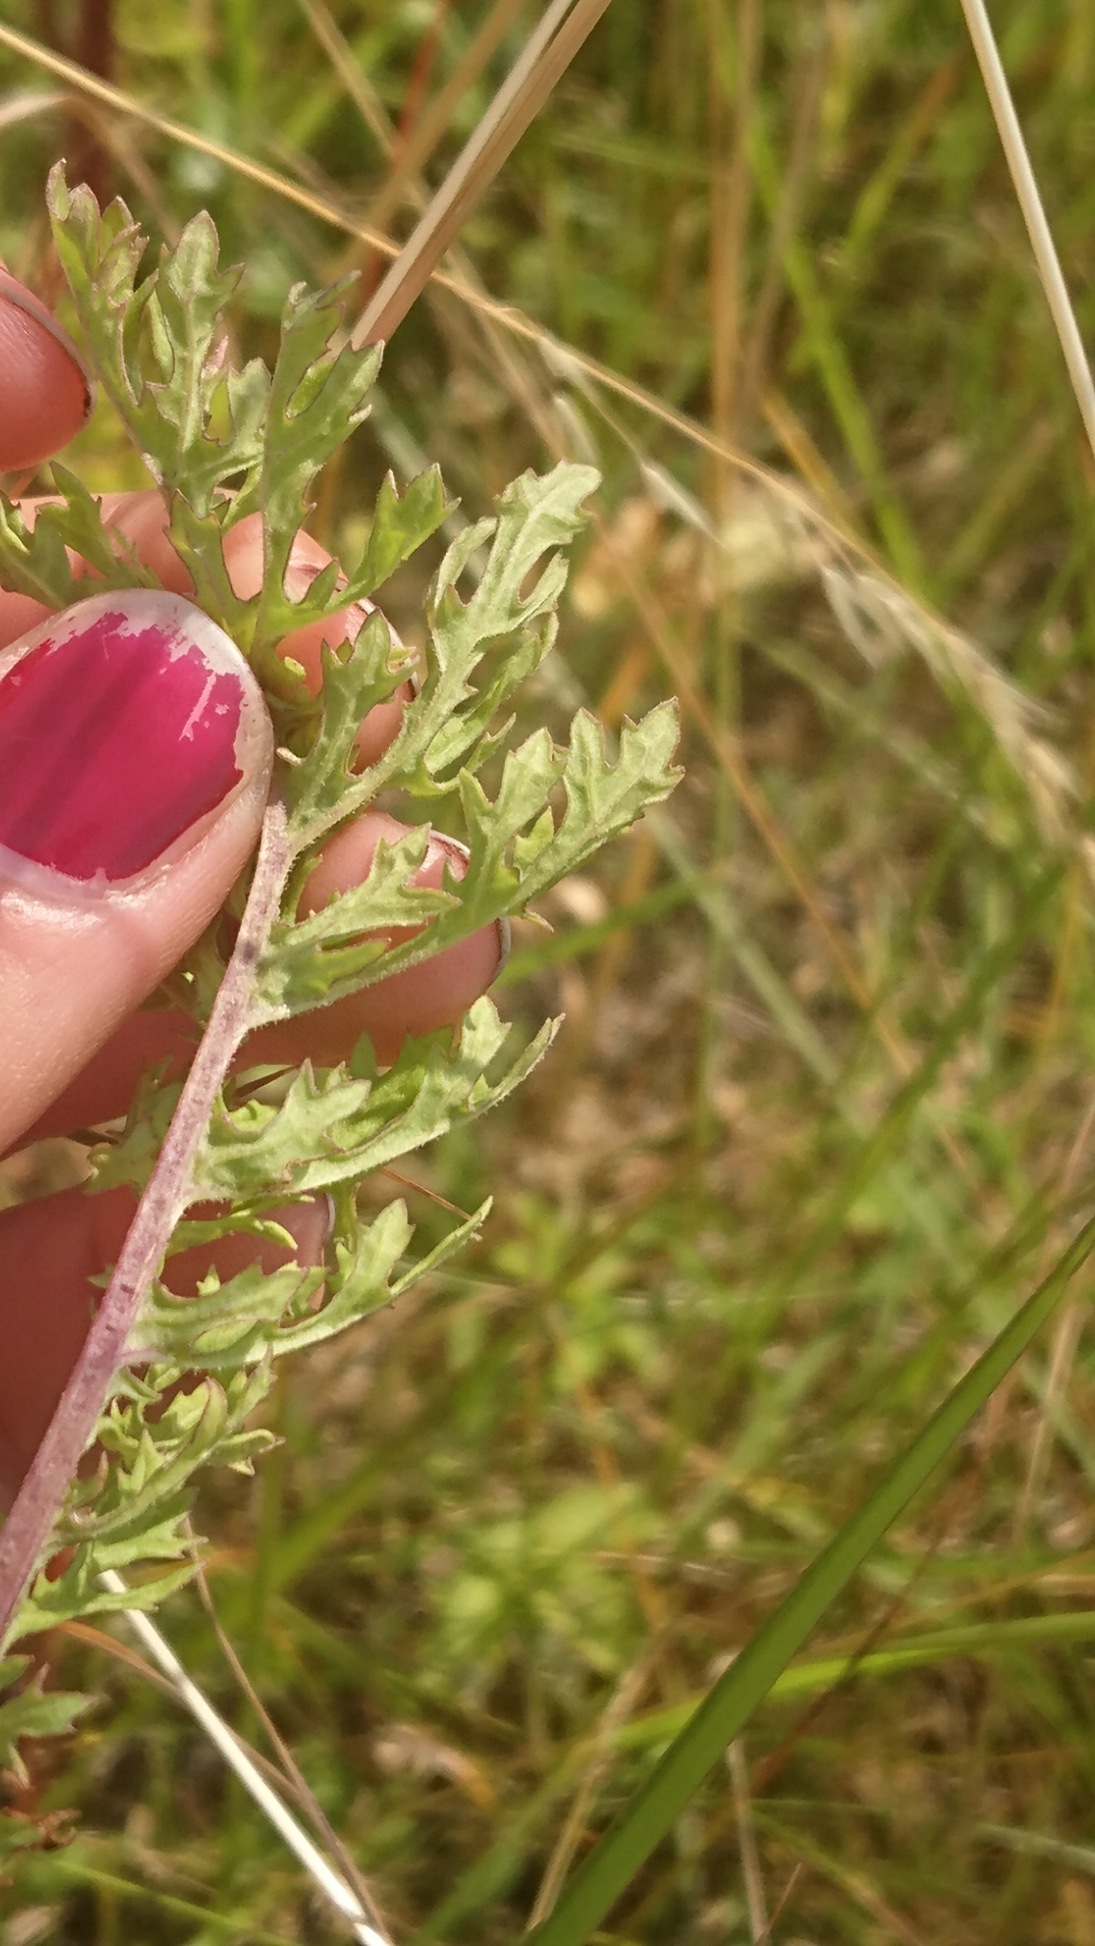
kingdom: Plantae
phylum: Tracheophyta
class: Magnoliopsida
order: Asterales
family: Asteraceae
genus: Jacobaea
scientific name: Jacobaea vulgaris
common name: Eng-brandbæger
